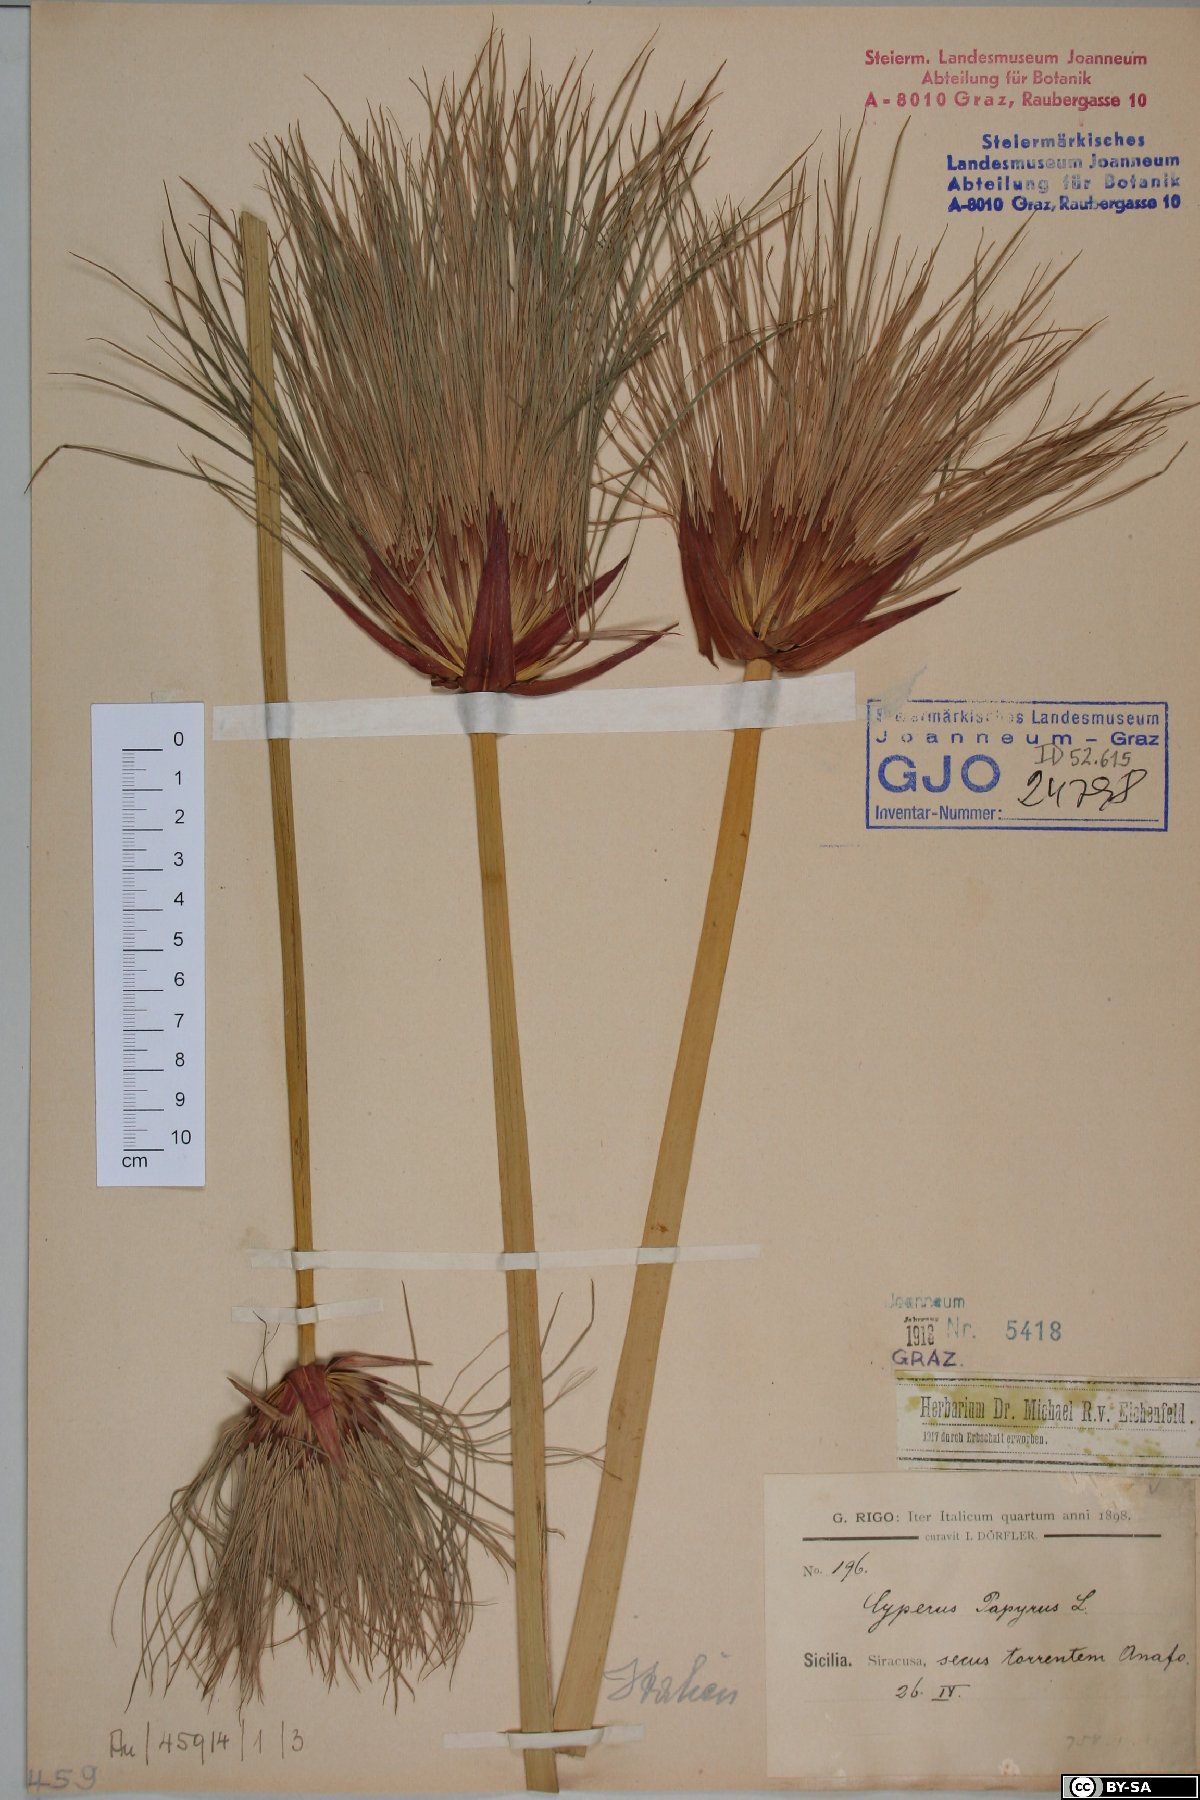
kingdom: Plantae
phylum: Tracheophyta
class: Liliopsida
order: Poales
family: Cyperaceae
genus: Cyperus
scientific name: Cyperus papyrus
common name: Papyrus
